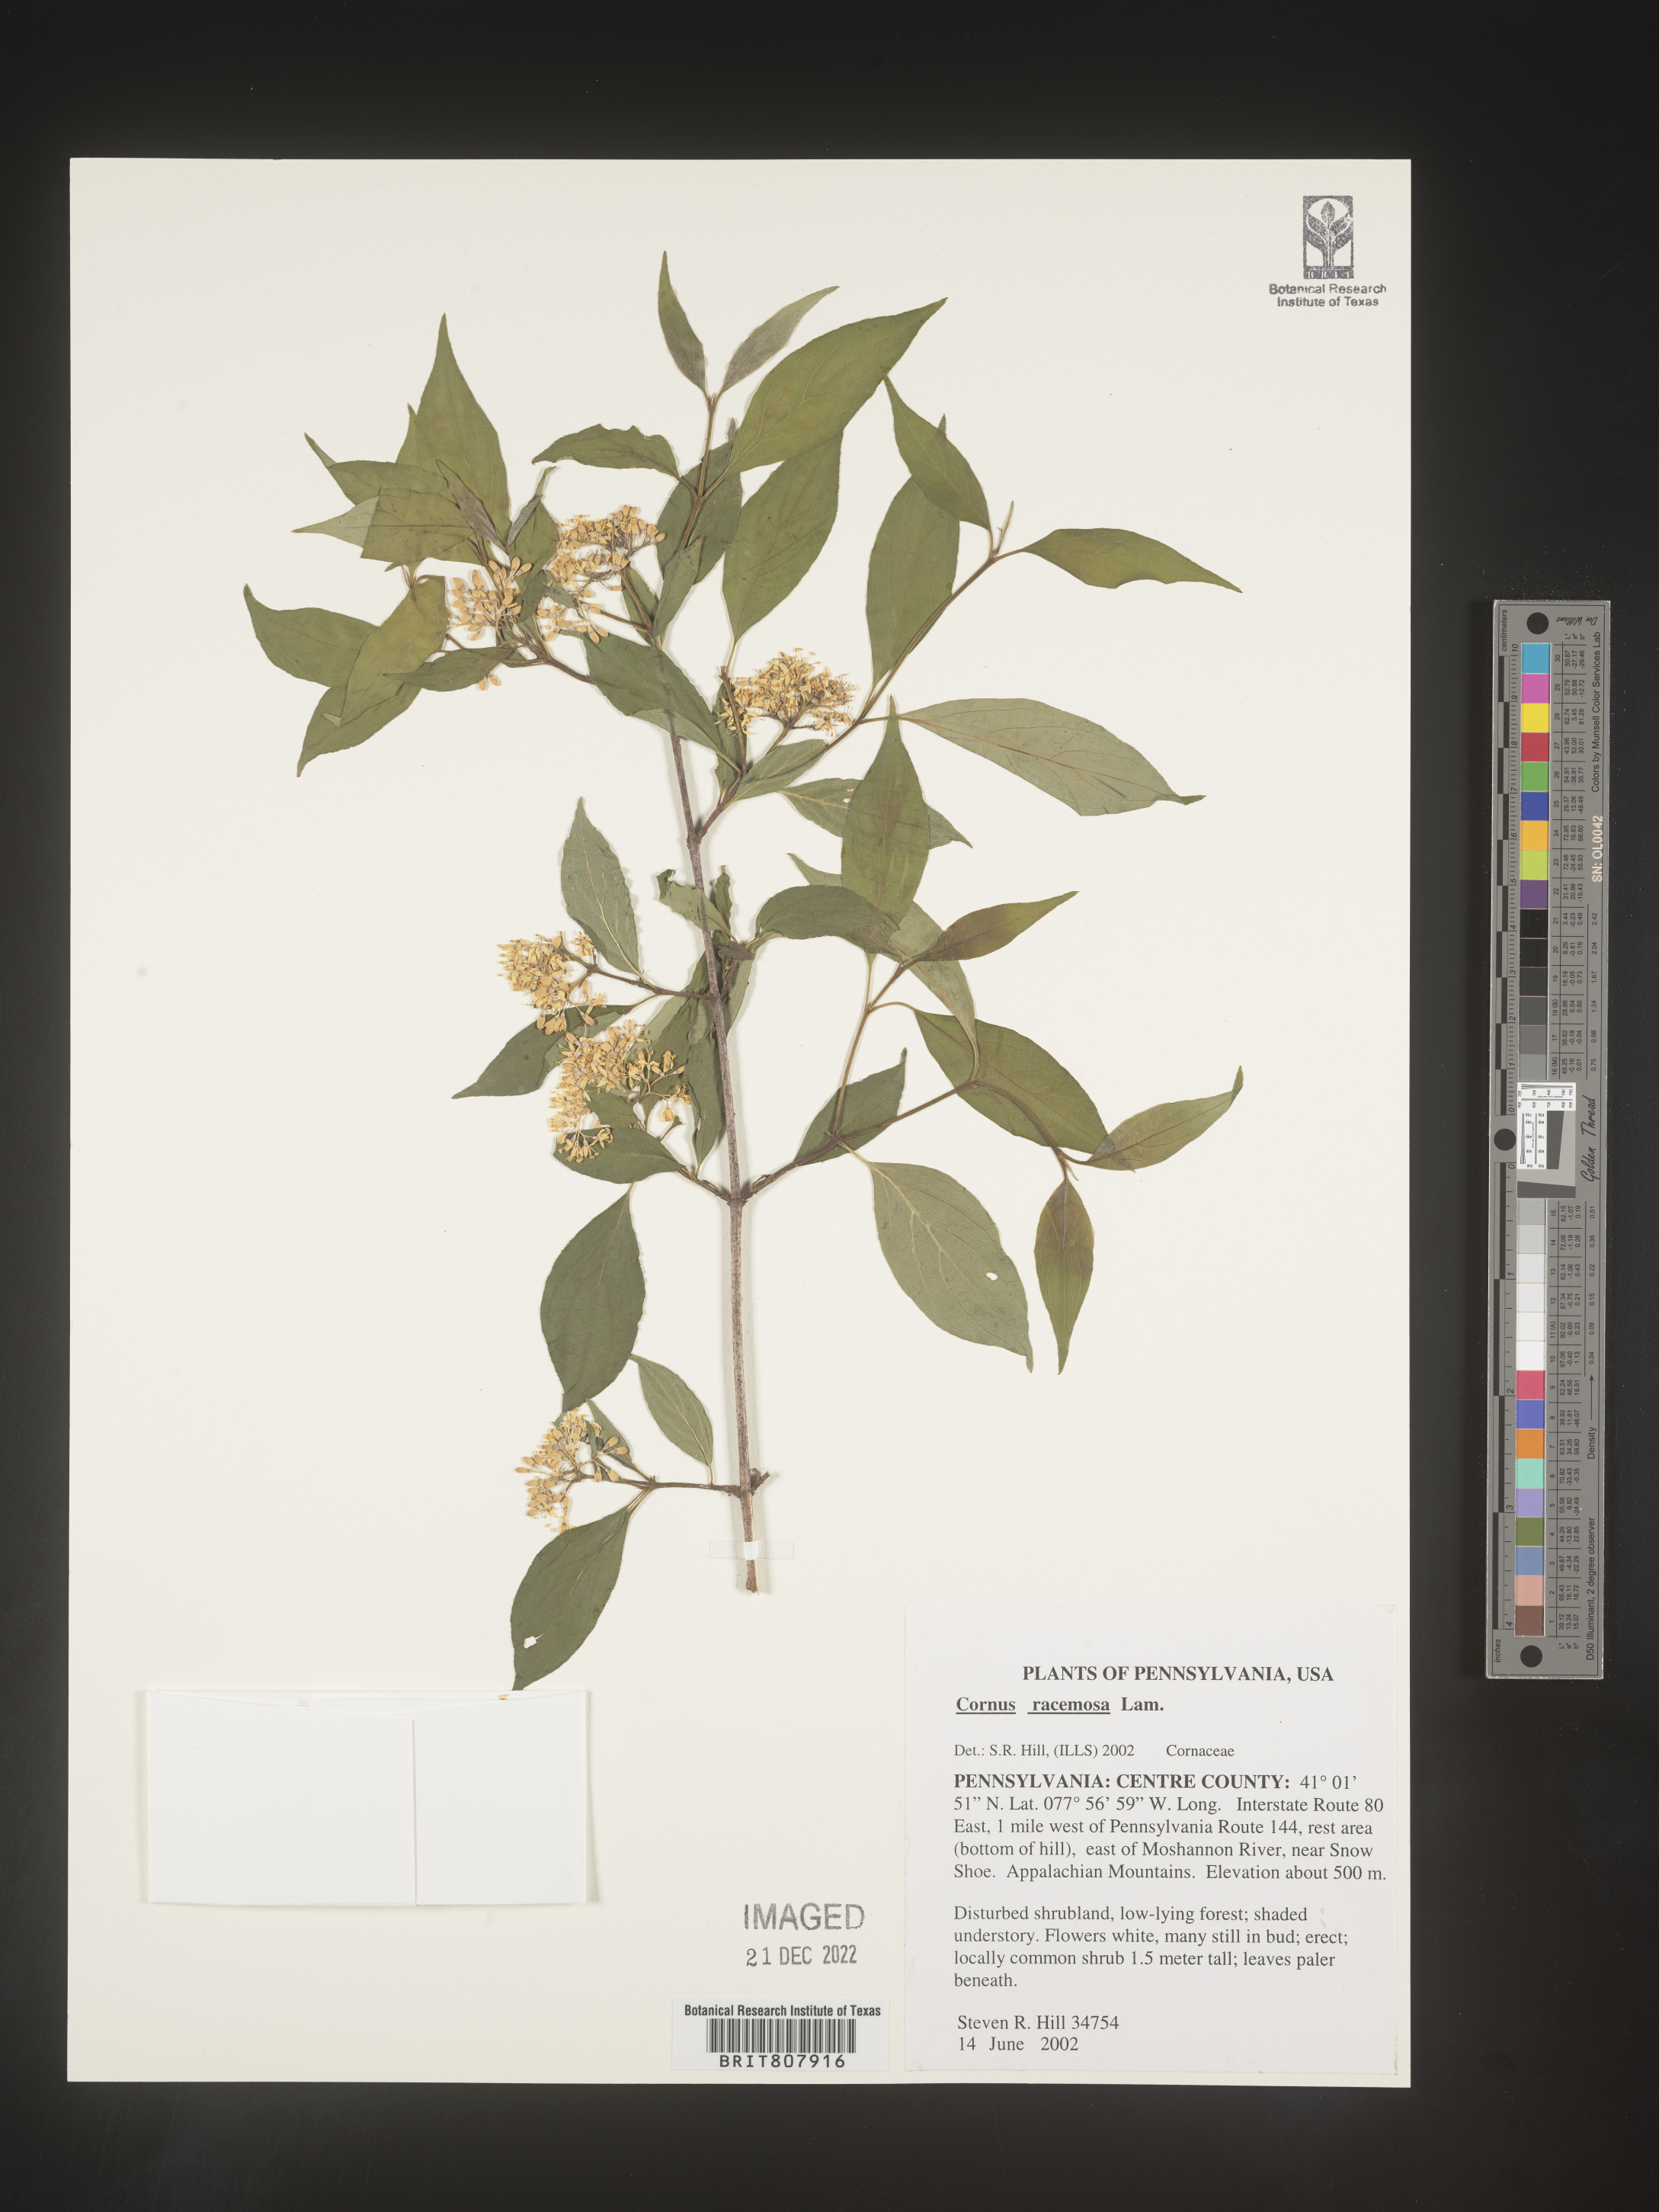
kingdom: Plantae
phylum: Tracheophyta
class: Magnoliopsida
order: Cornales
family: Cornaceae
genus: Cornus
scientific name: Cornus racemosa
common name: Panicled dogwood
